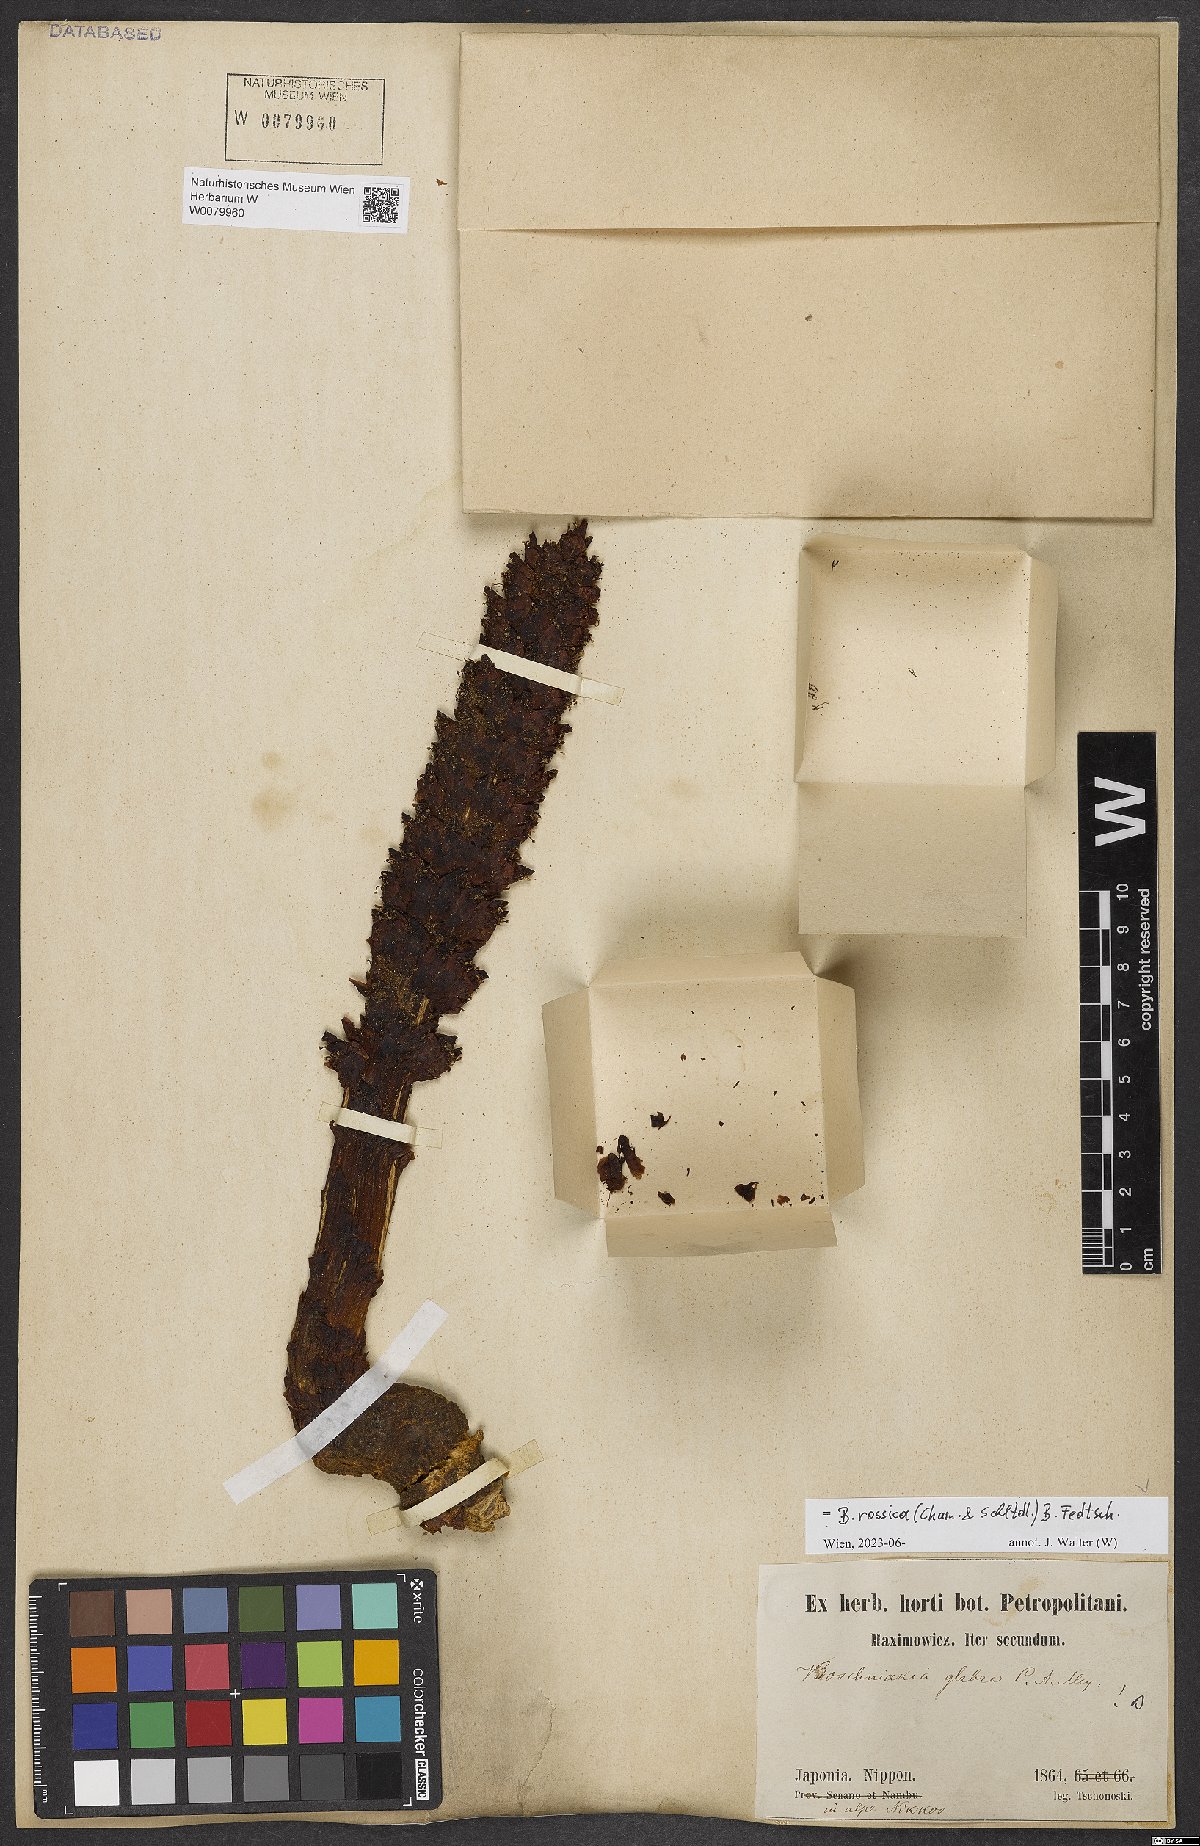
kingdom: Plantae
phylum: Tracheophyta
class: Magnoliopsida
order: Lamiales
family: Orobanchaceae
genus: Boschniakia
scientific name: Boschniakia rossica
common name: Poque
